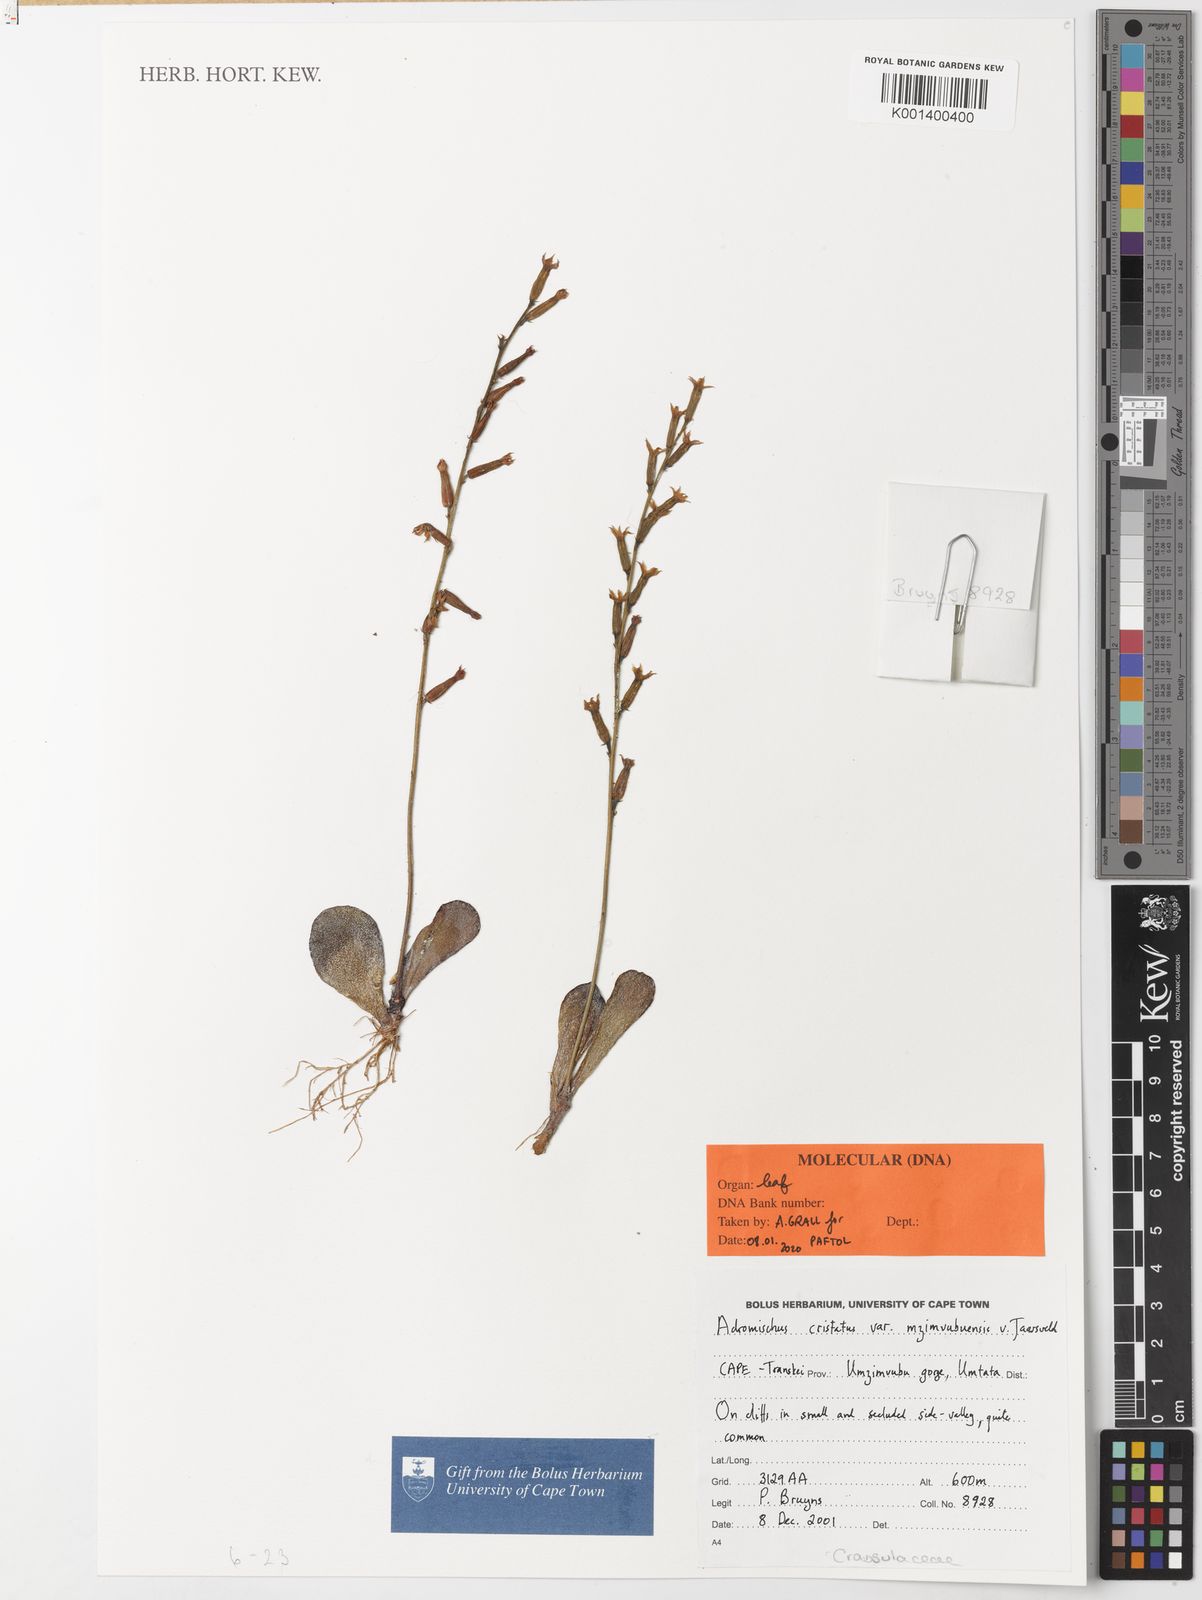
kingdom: Plantae
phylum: Tracheophyta
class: Magnoliopsida
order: Saxifragales
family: Crassulaceae
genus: Adromischus
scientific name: Adromischus cristatus
